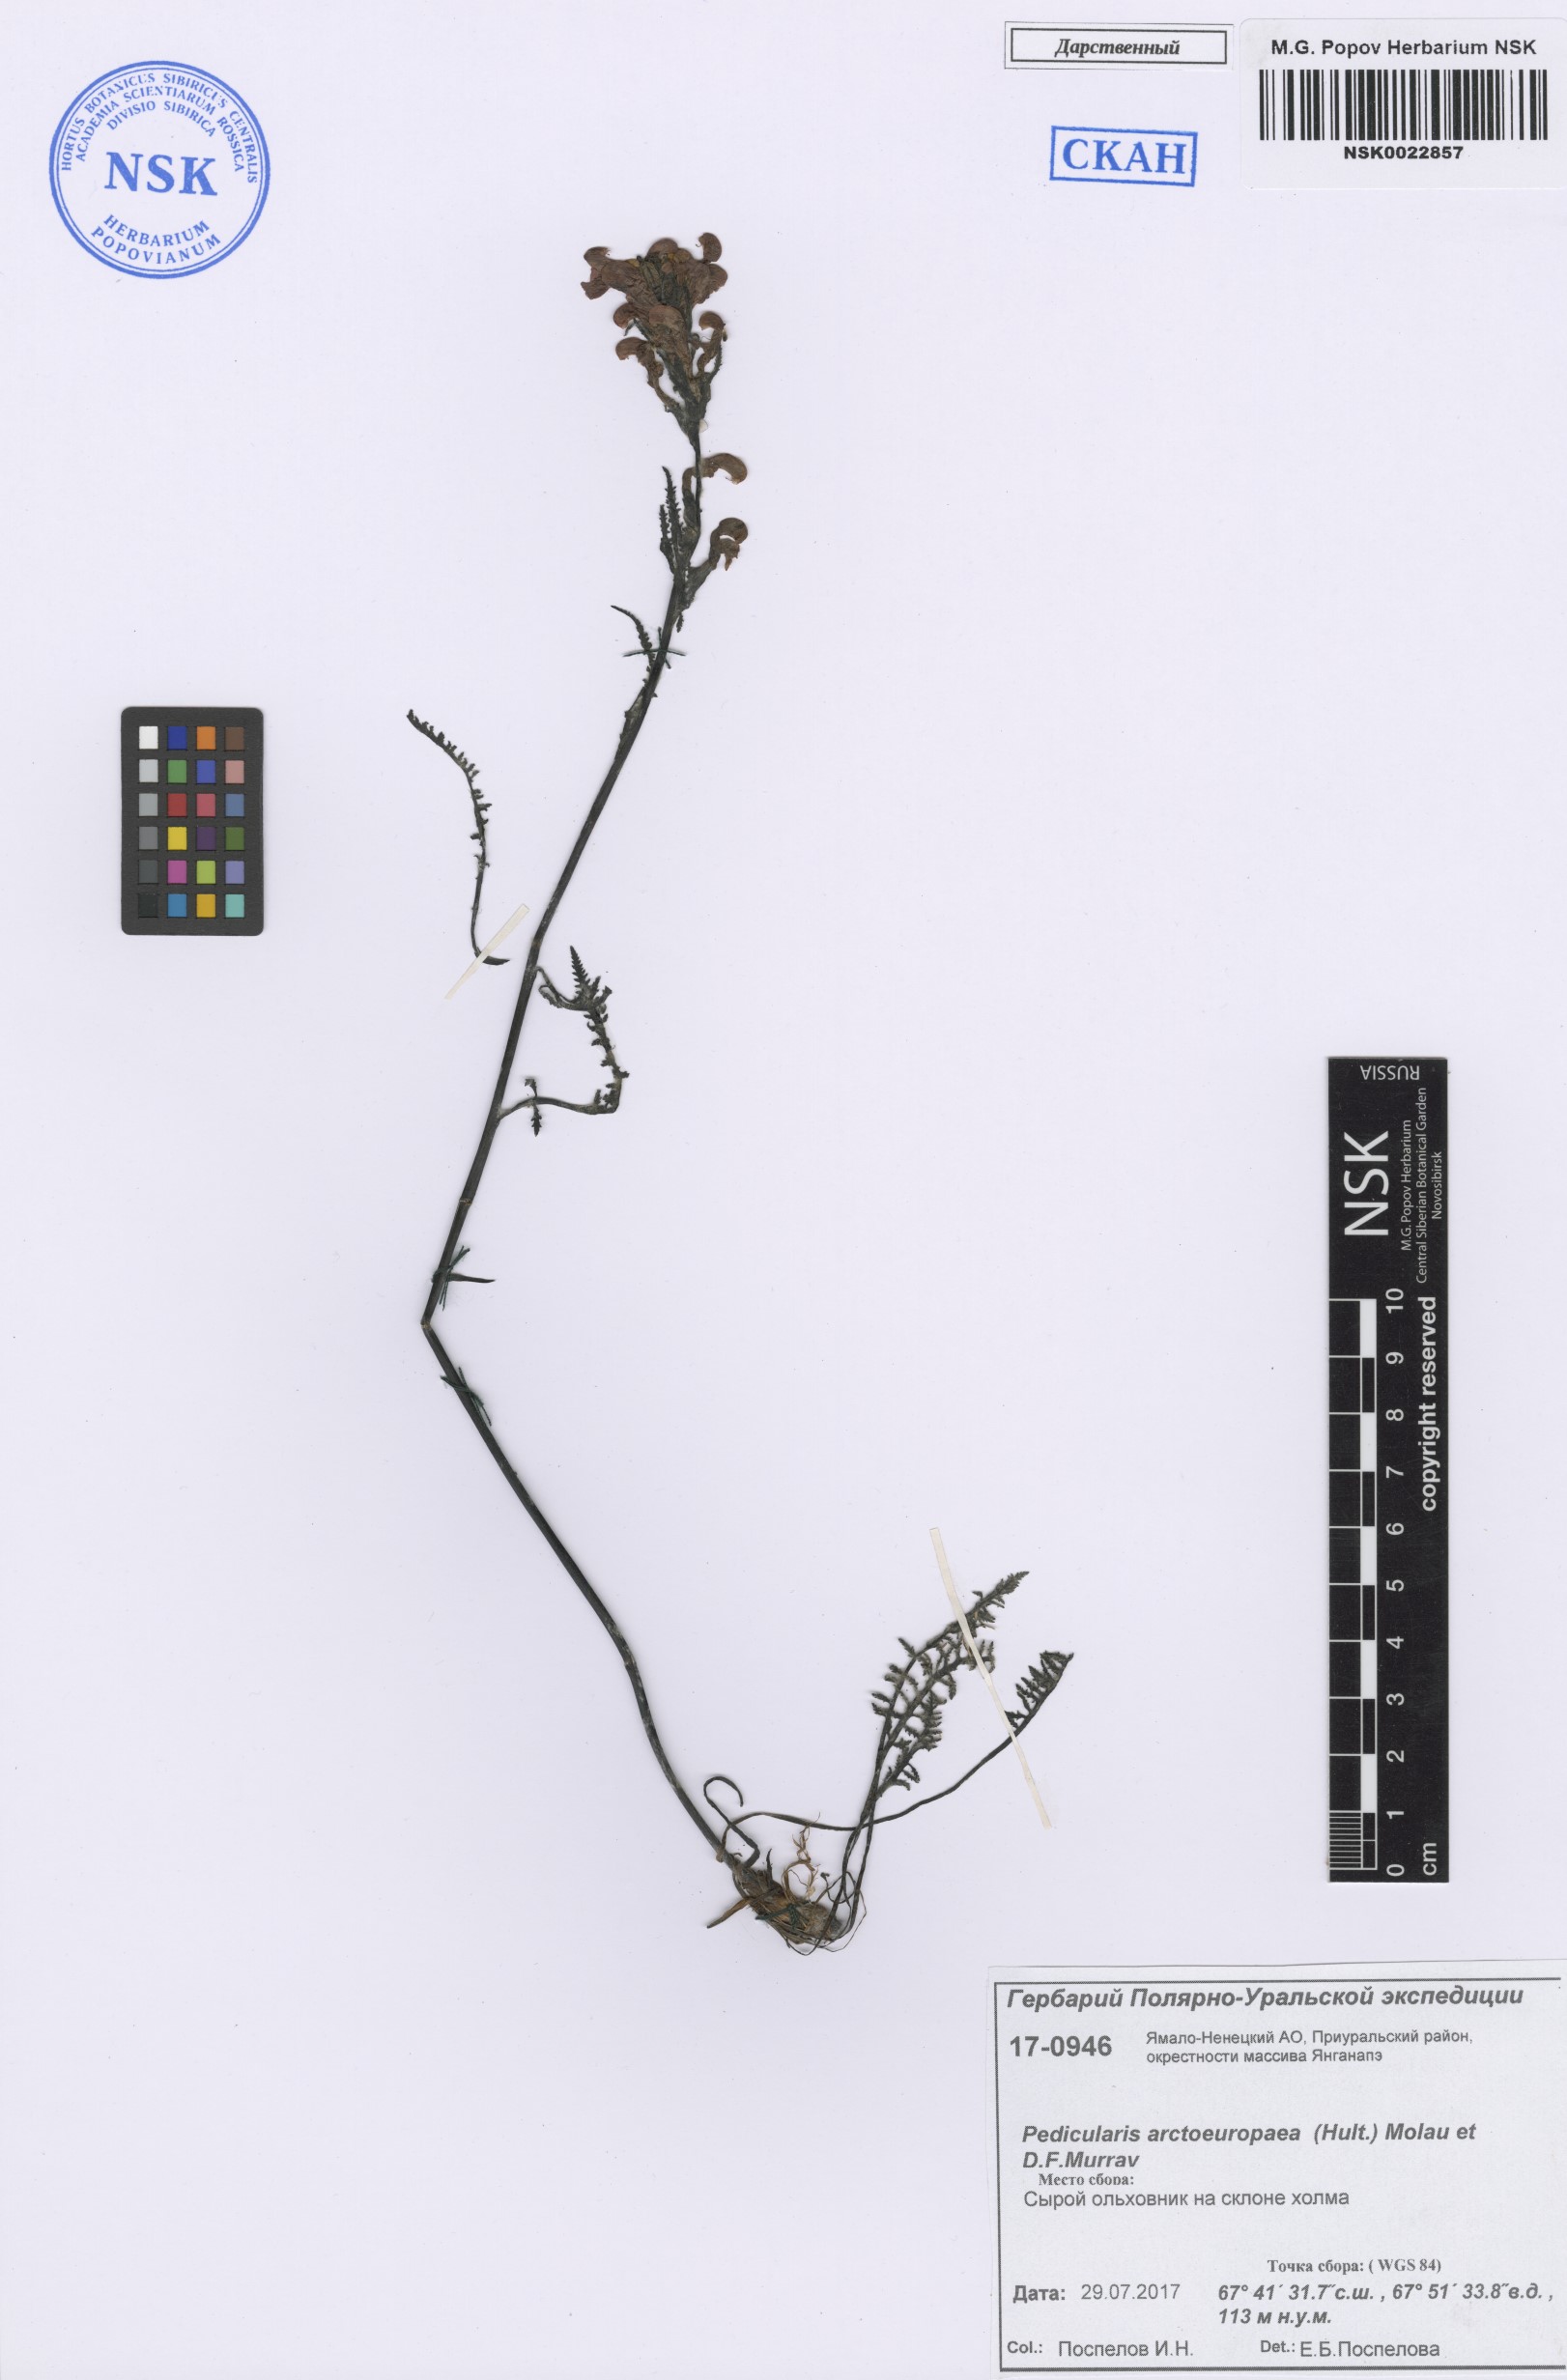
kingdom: Plantae
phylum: Tracheophyta
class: Magnoliopsida
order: Lamiales
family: Orobanchaceae
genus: Pedicularis
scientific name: Pedicularis arctoeuropaea
